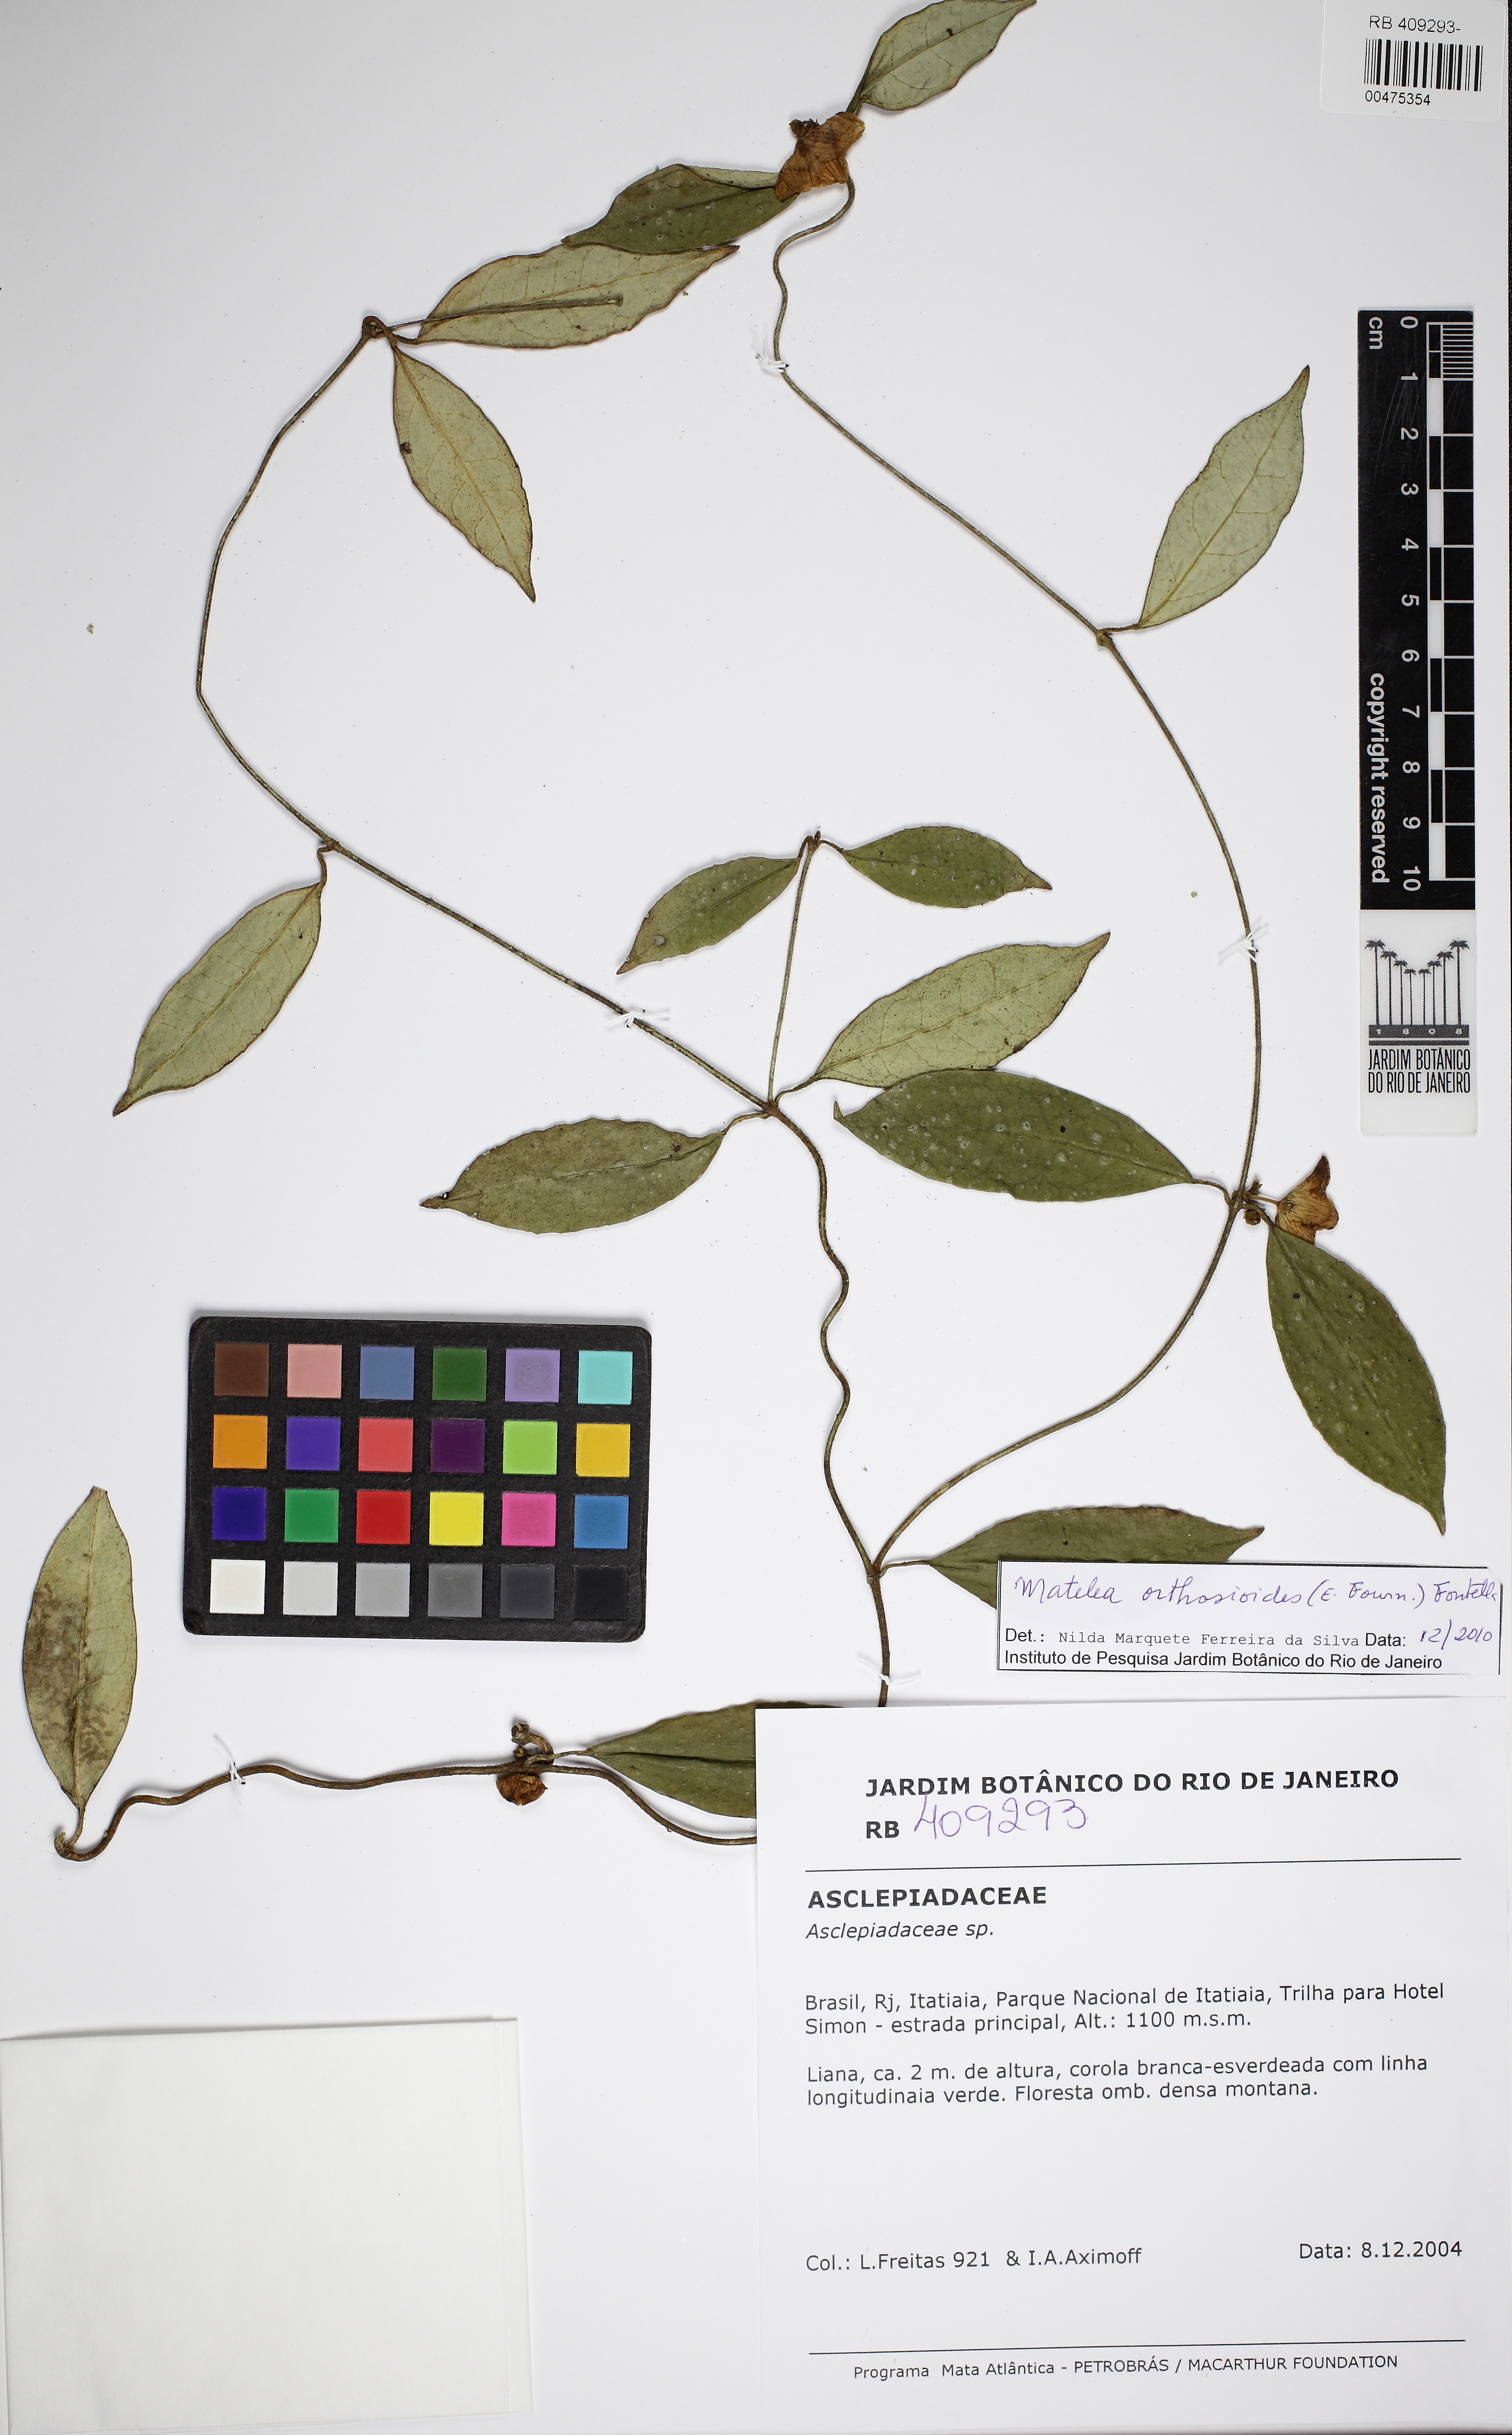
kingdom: Plantae
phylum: Tracheophyta
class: Magnoliopsida
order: Gentianales
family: Apocynaceae
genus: Matelea
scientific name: Matelea fournieri
